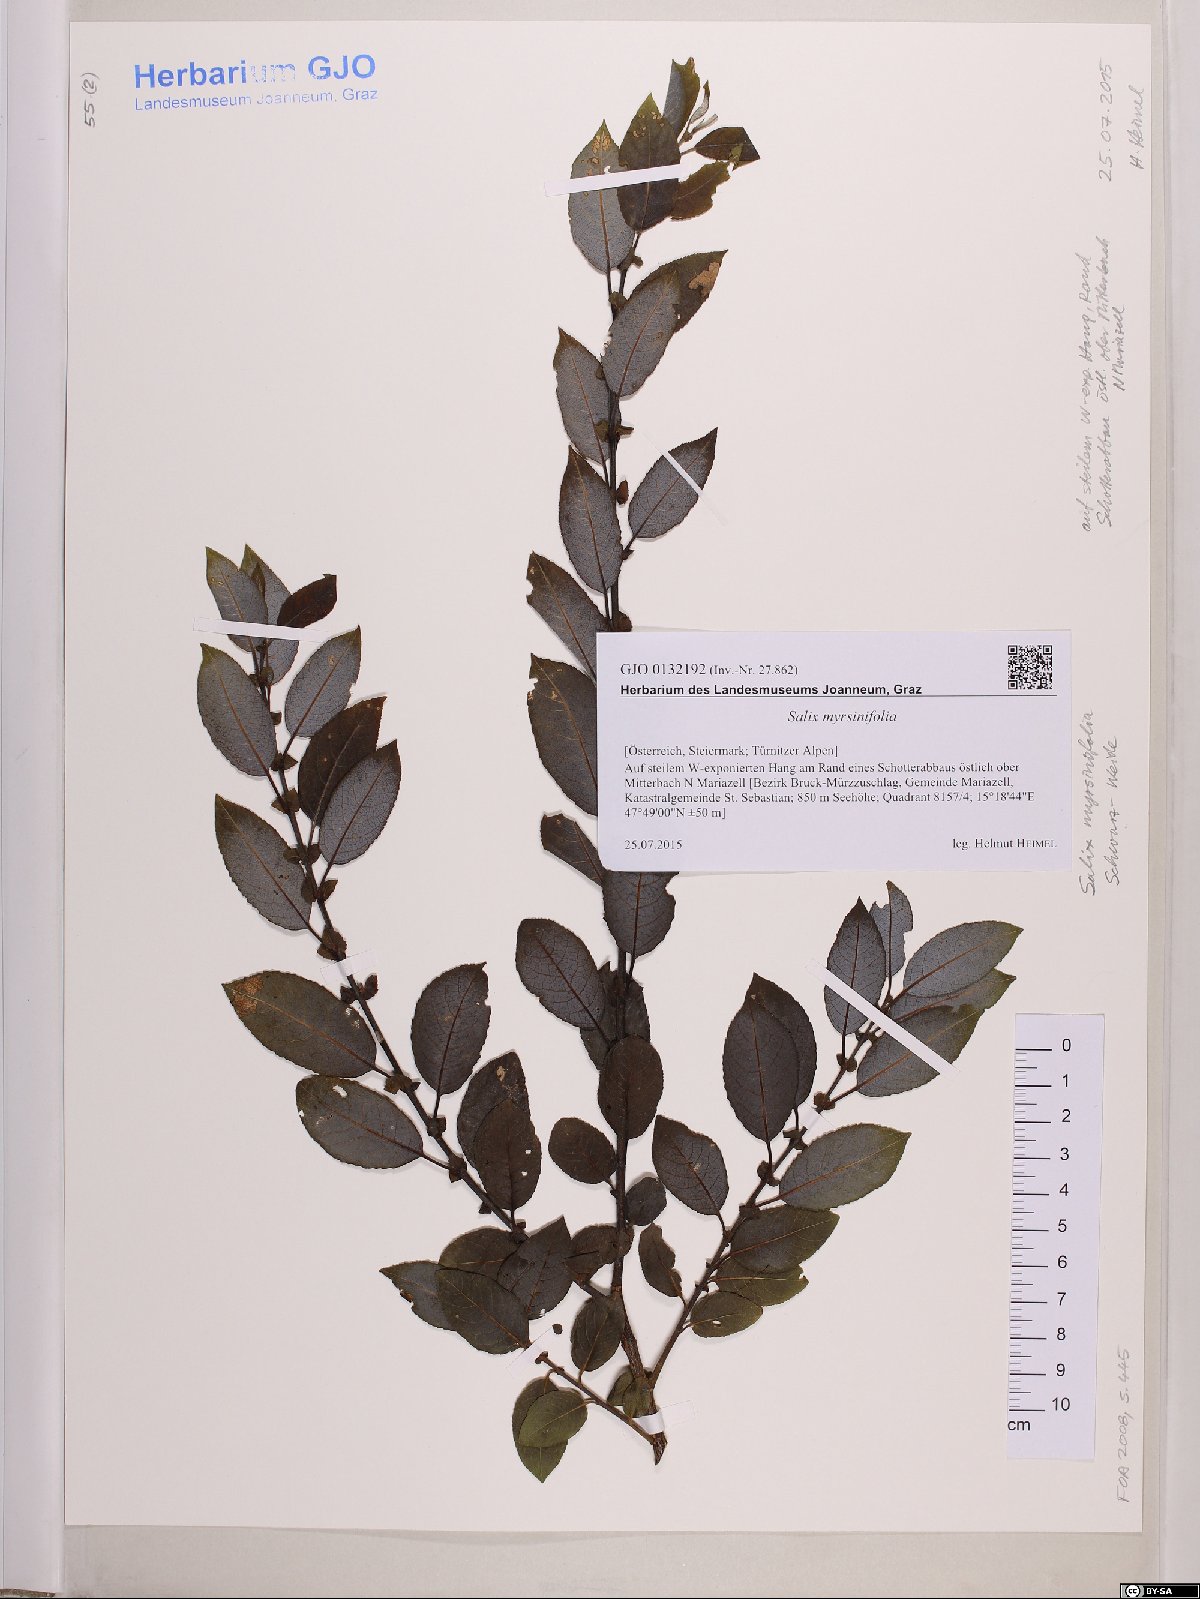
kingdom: Plantae
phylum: Tracheophyta
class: Magnoliopsida
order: Malpighiales
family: Salicaceae
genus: Salix
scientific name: Salix myrsinifolia
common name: Dark-leaved willow
